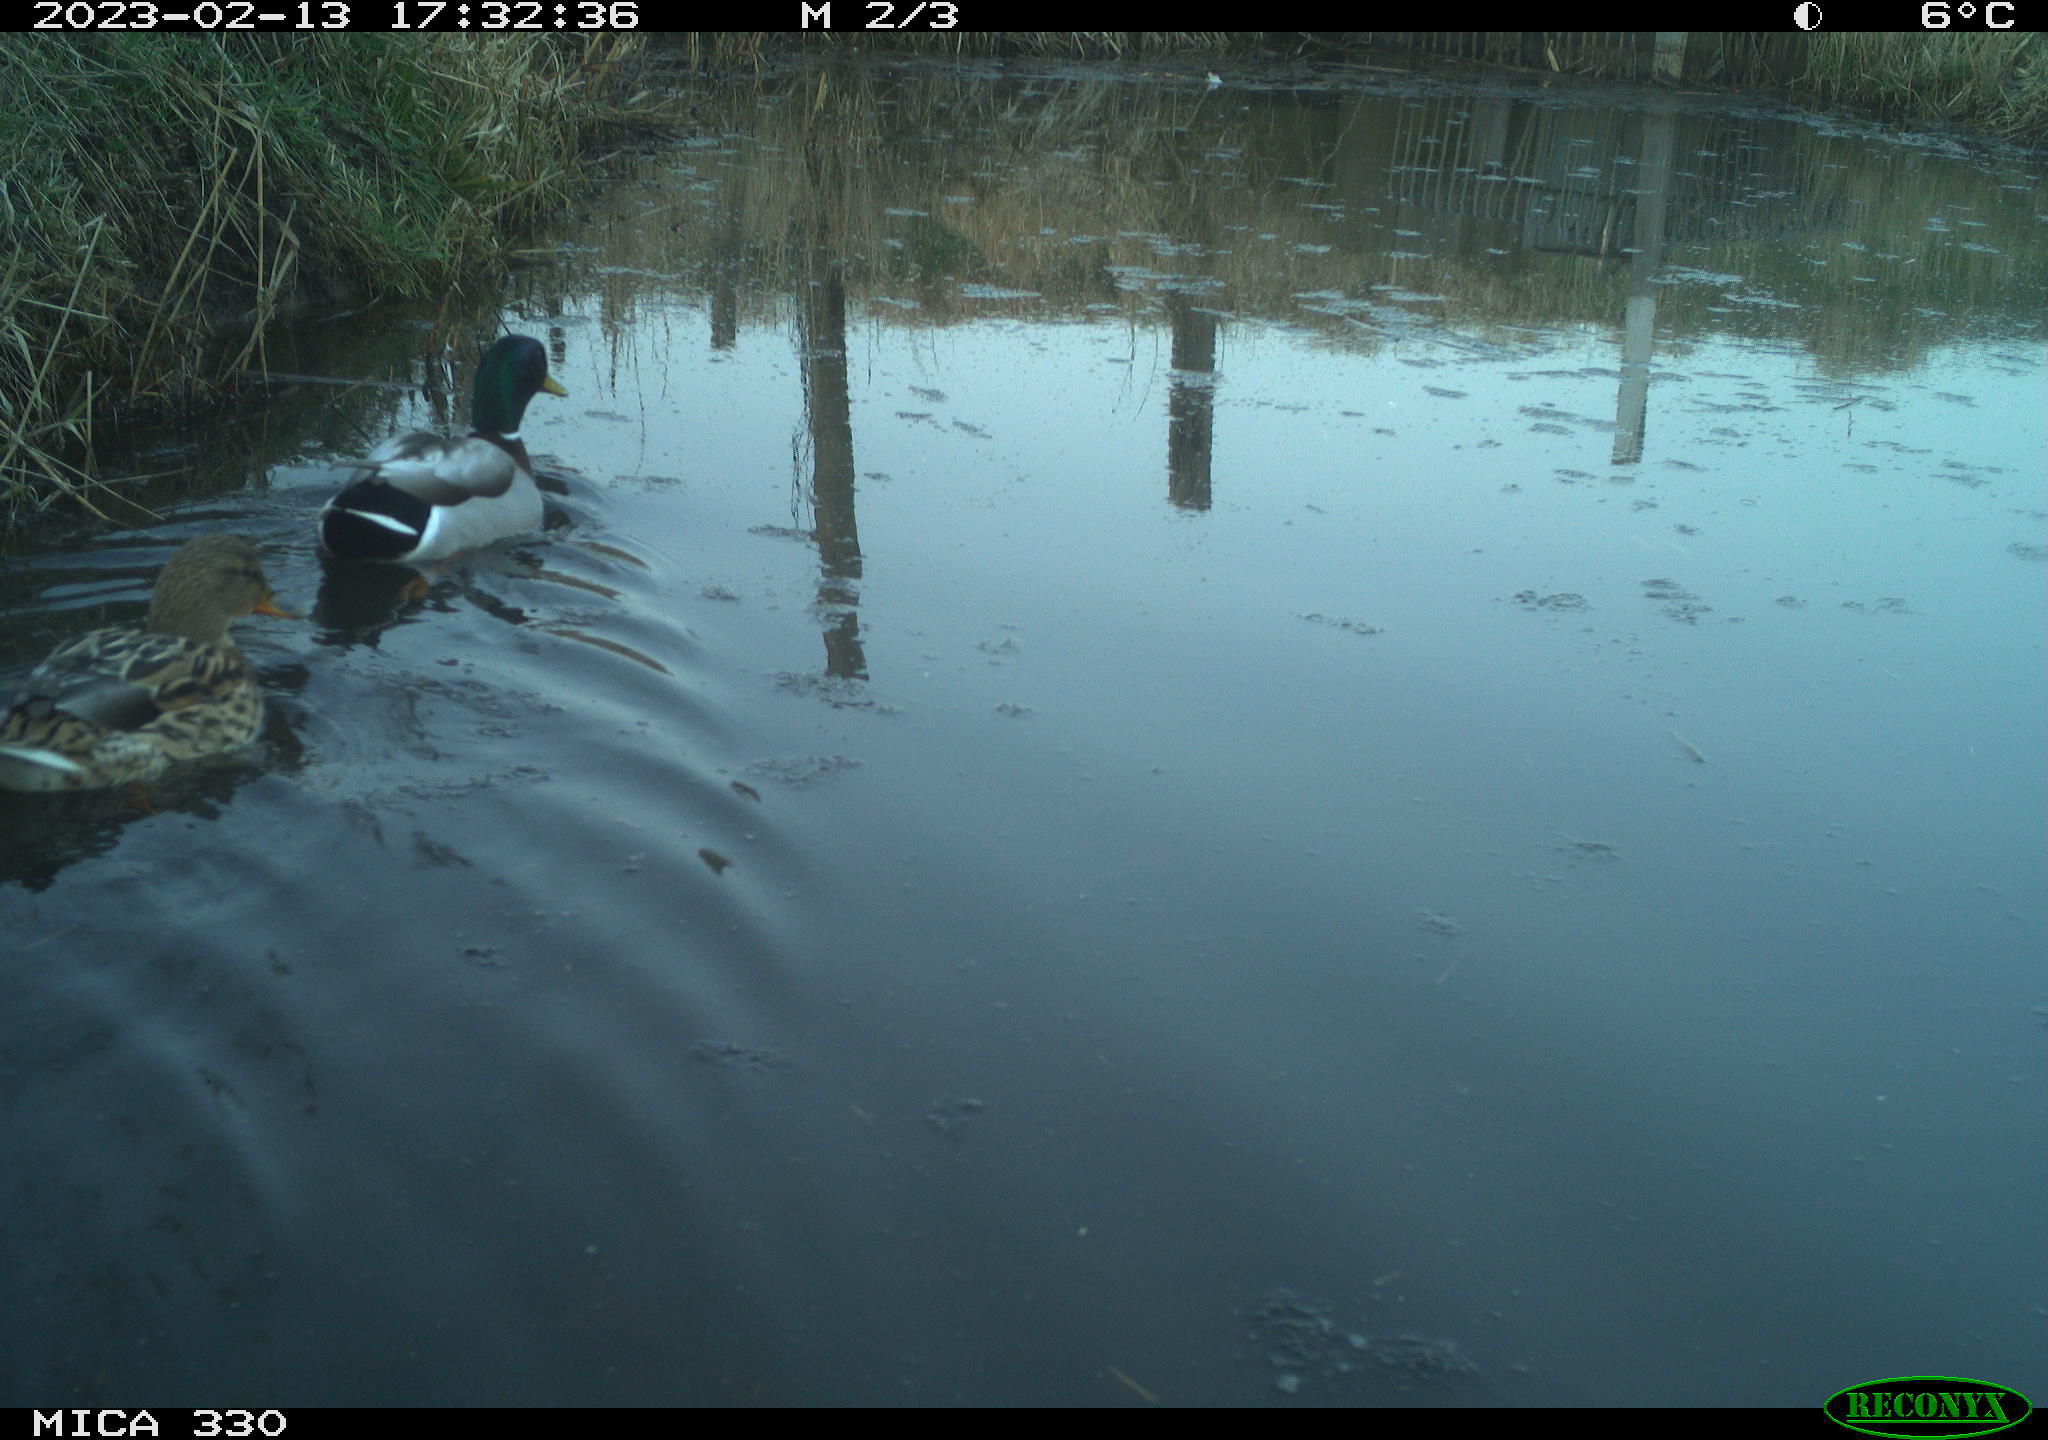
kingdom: Animalia
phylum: Chordata
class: Aves
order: Anseriformes
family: Anatidae
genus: Anas
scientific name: Anas
